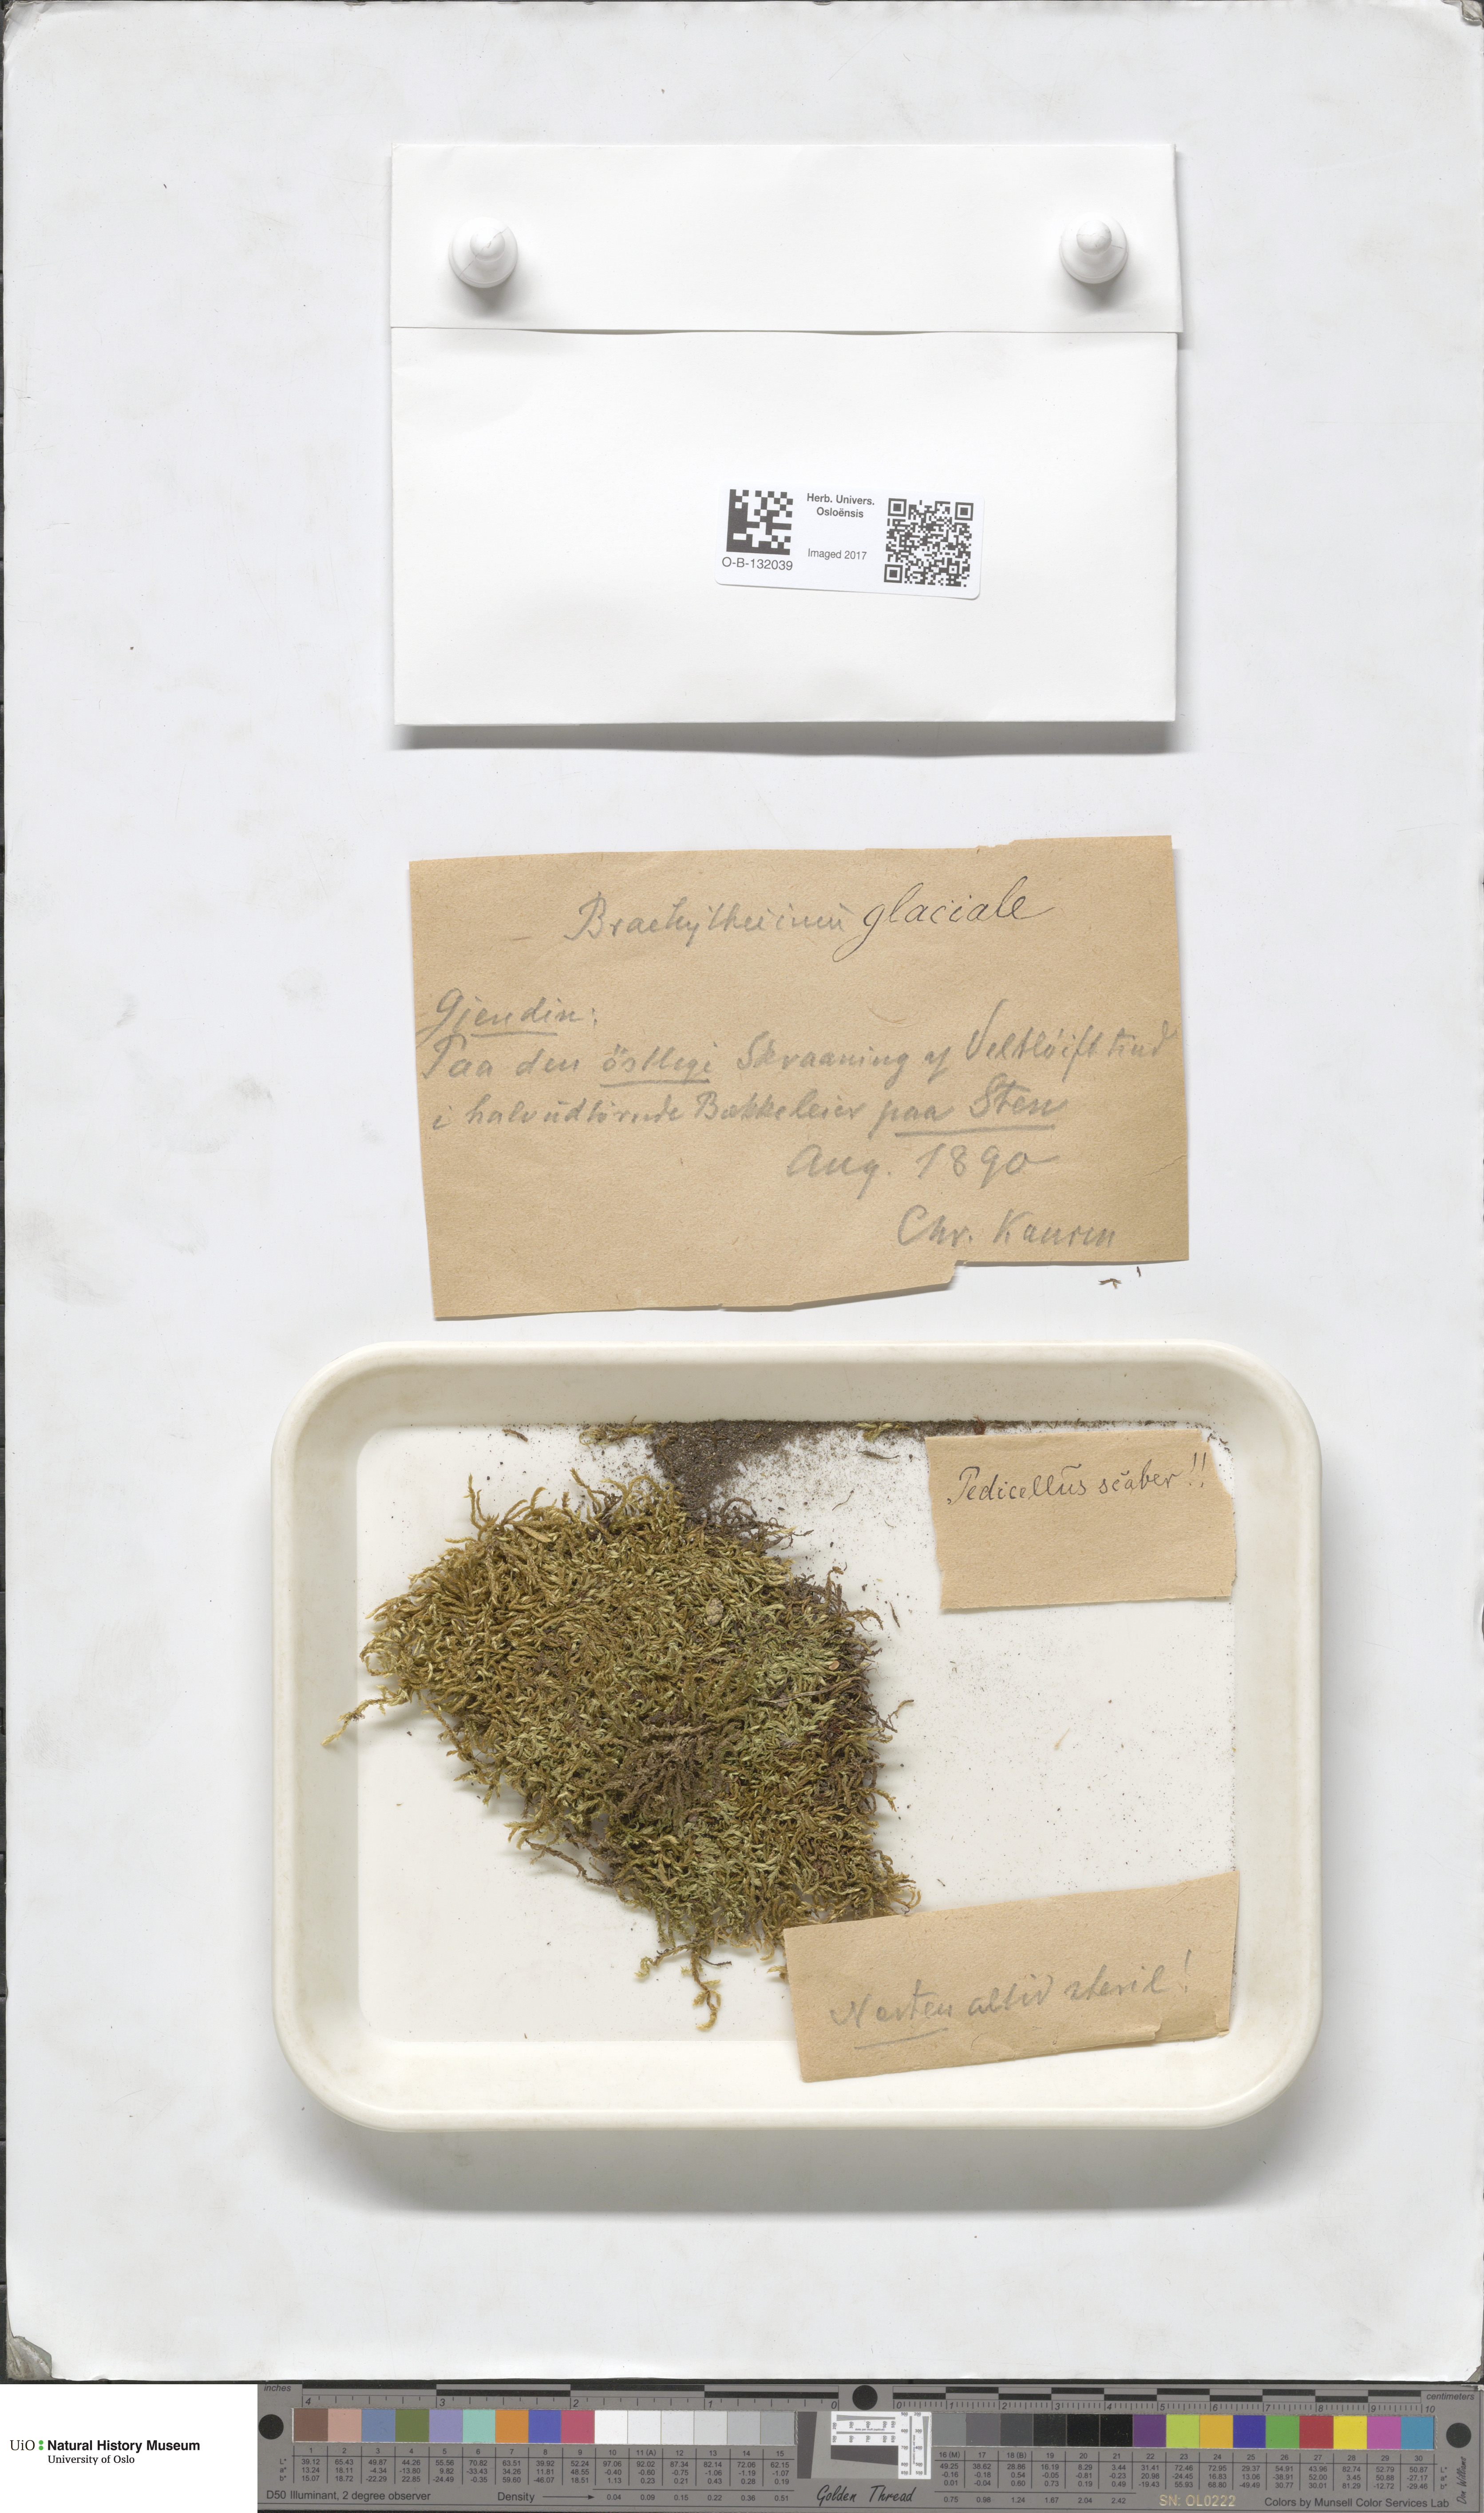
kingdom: Plantae
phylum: Bryophyta
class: Bryopsida
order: Hypnales
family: Brachytheciaceae
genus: Sciuro-hypnum
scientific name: Sciuro-hypnum glaciale
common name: Snow feather-moss
